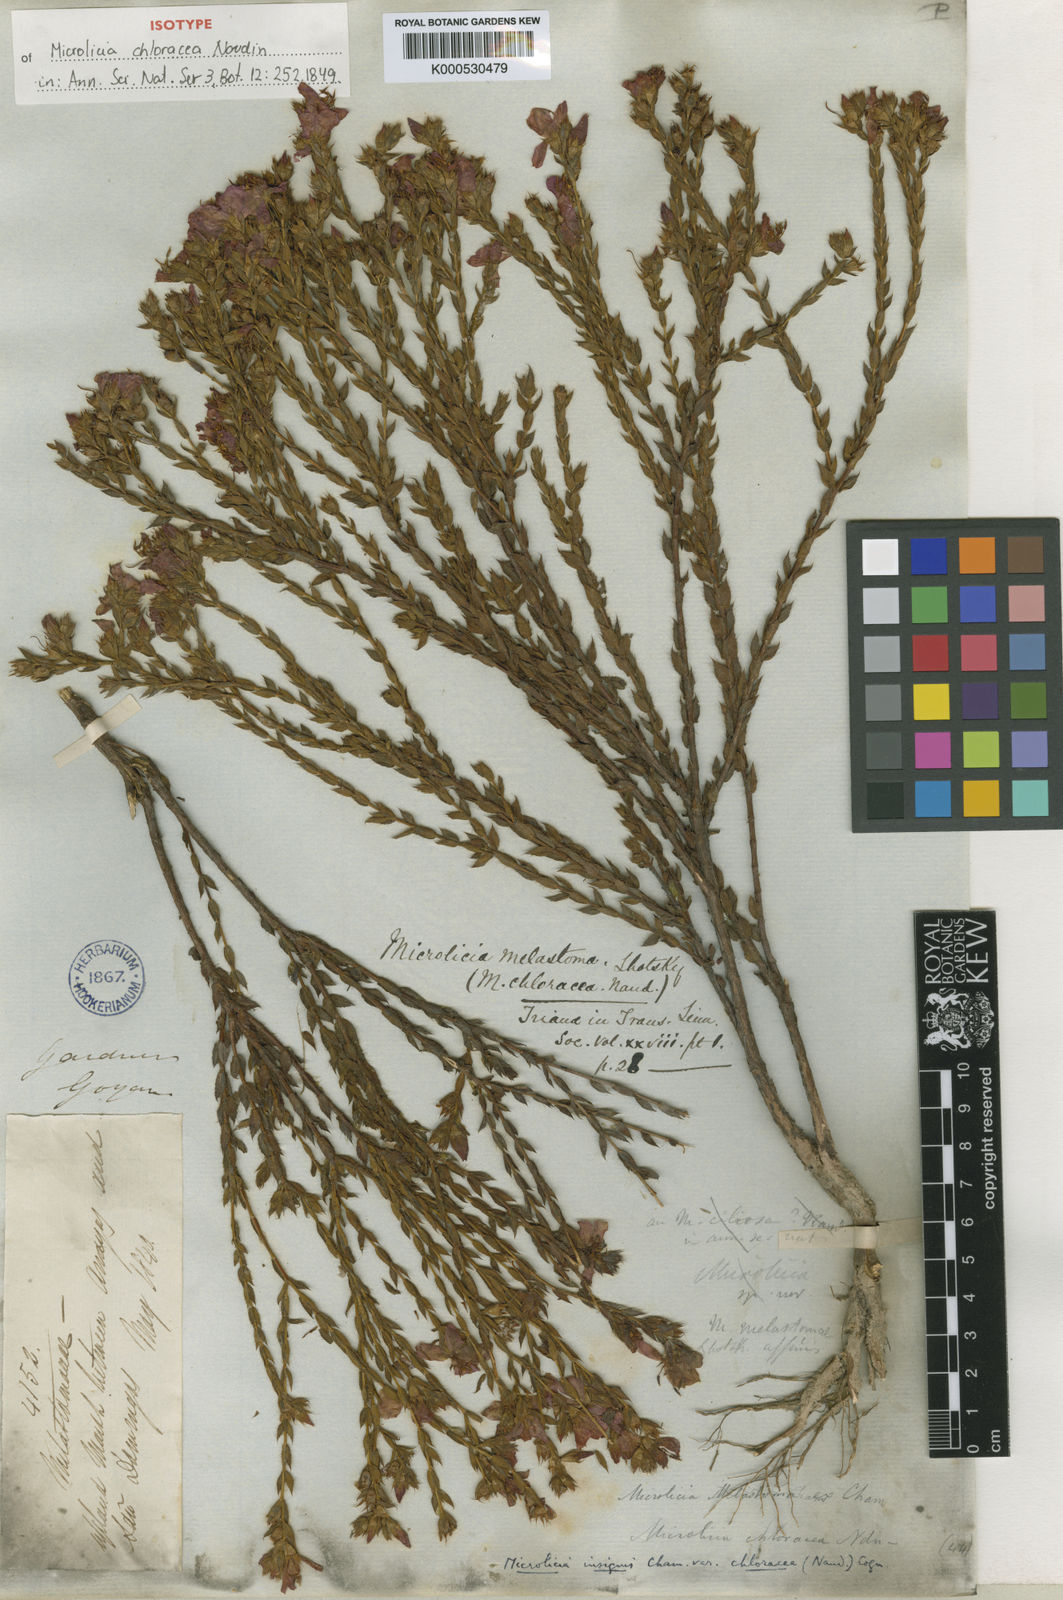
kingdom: Plantae
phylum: Tracheophyta
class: Magnoliopsida
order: Myrtales
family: Melastomataceae
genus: Microlicia
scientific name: Microlicia
